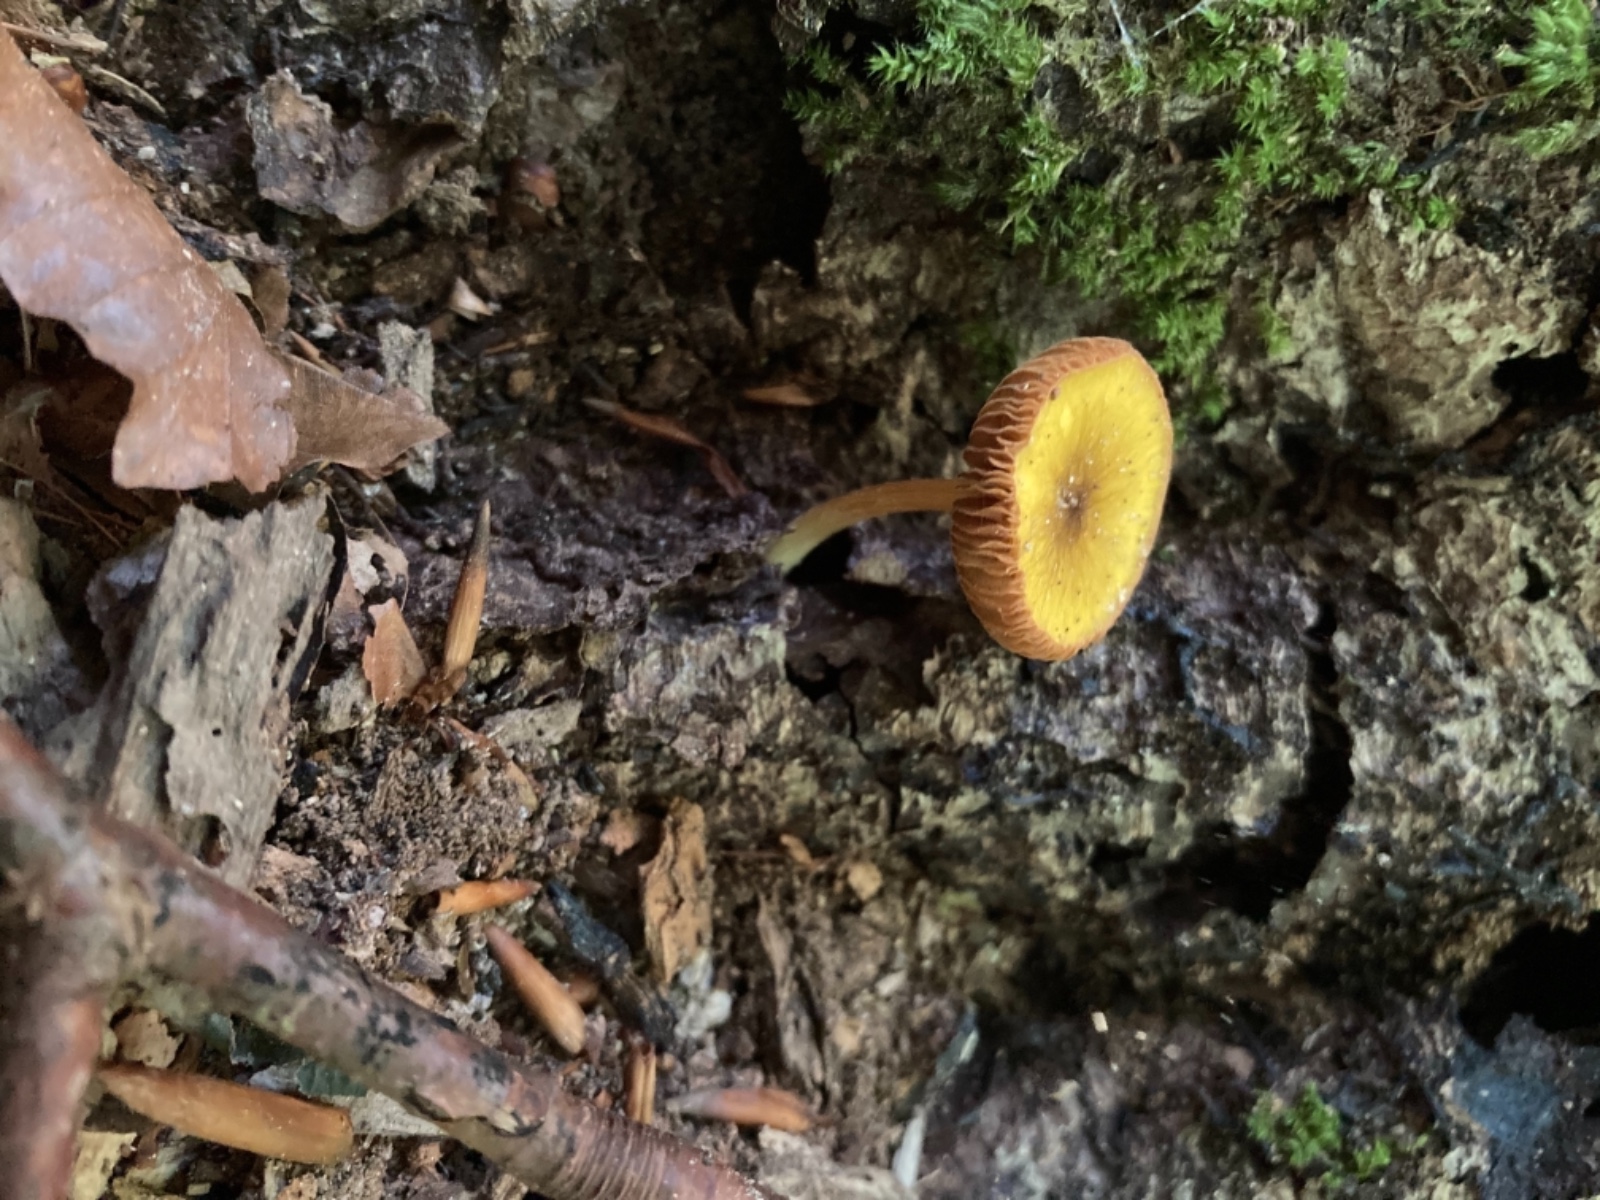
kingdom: Fungi
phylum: Basidiomycota
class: Agaricomycetes
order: Agaricales
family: Pluteaceae
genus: Pluteus
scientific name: Pluteus
